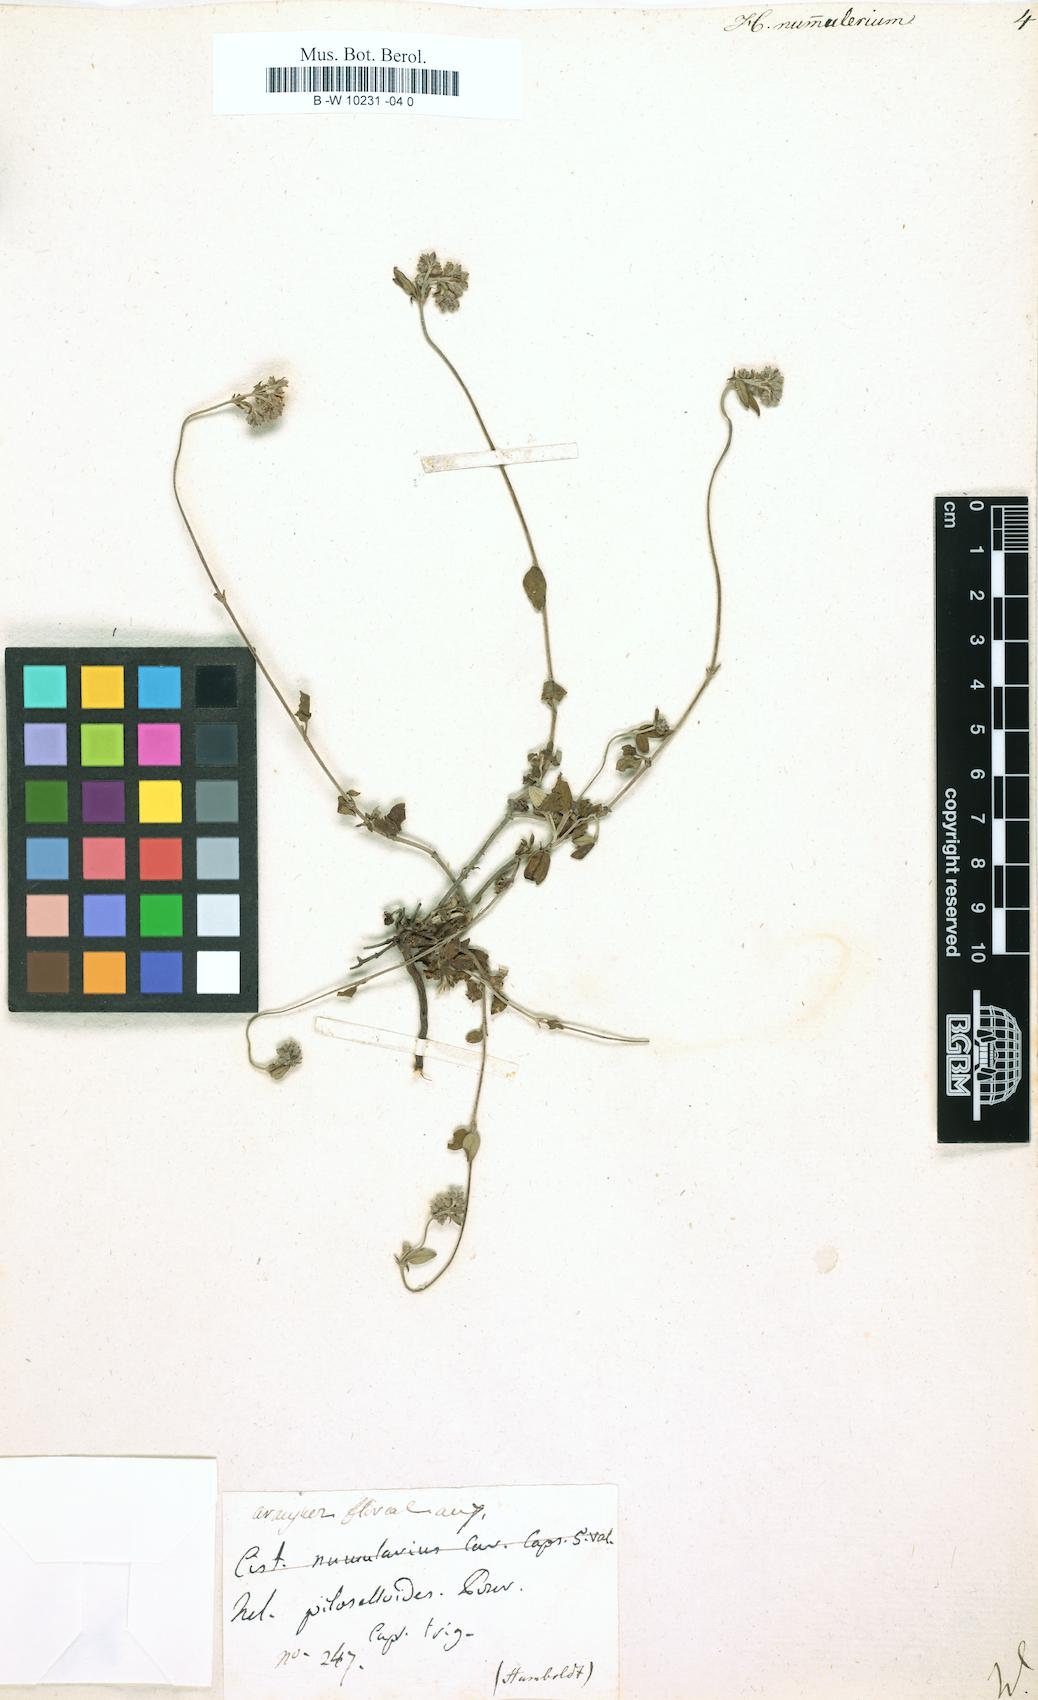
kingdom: Plantae
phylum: Tracheophyta
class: Magnoliopsida
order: Malvales
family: Cistaceae
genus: Helianthemum
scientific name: Helianthemum nummularium
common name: Common rock-rose
